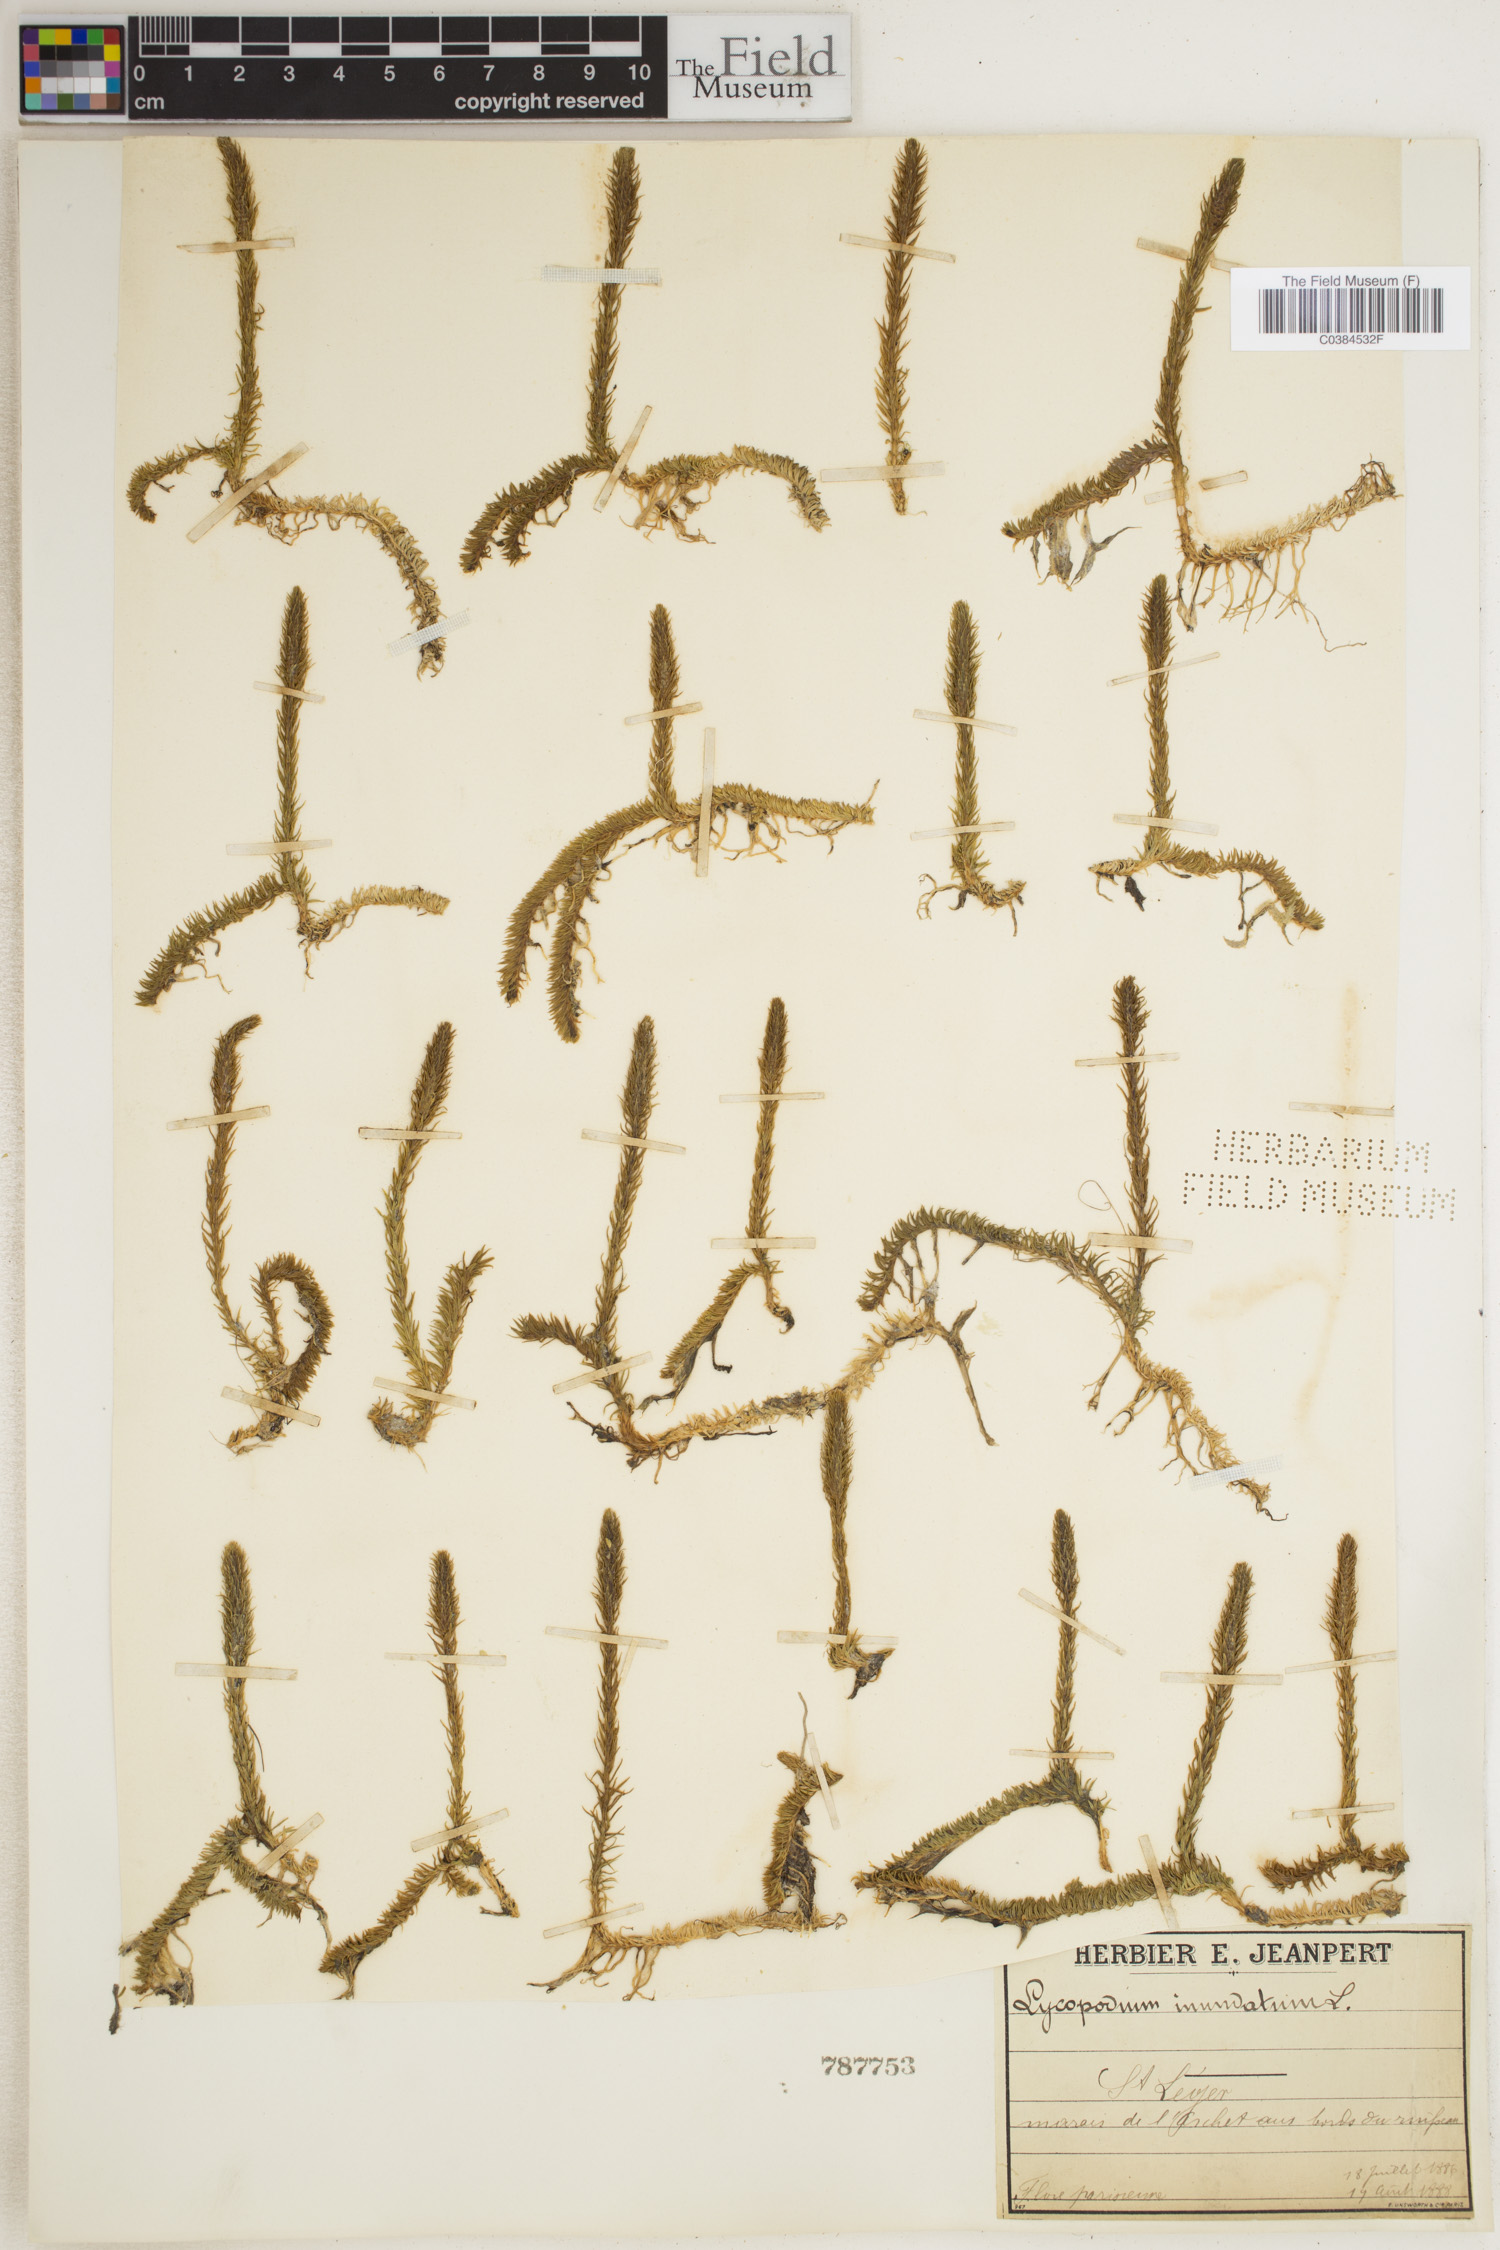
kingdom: Plantae
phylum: Tracheophyta
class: Lycopodiopsida
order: Lycopodiales
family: Lycopodiaceae
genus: Lycopodiella
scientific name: Lycopodiella inundata
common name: Marsh clubmoss
